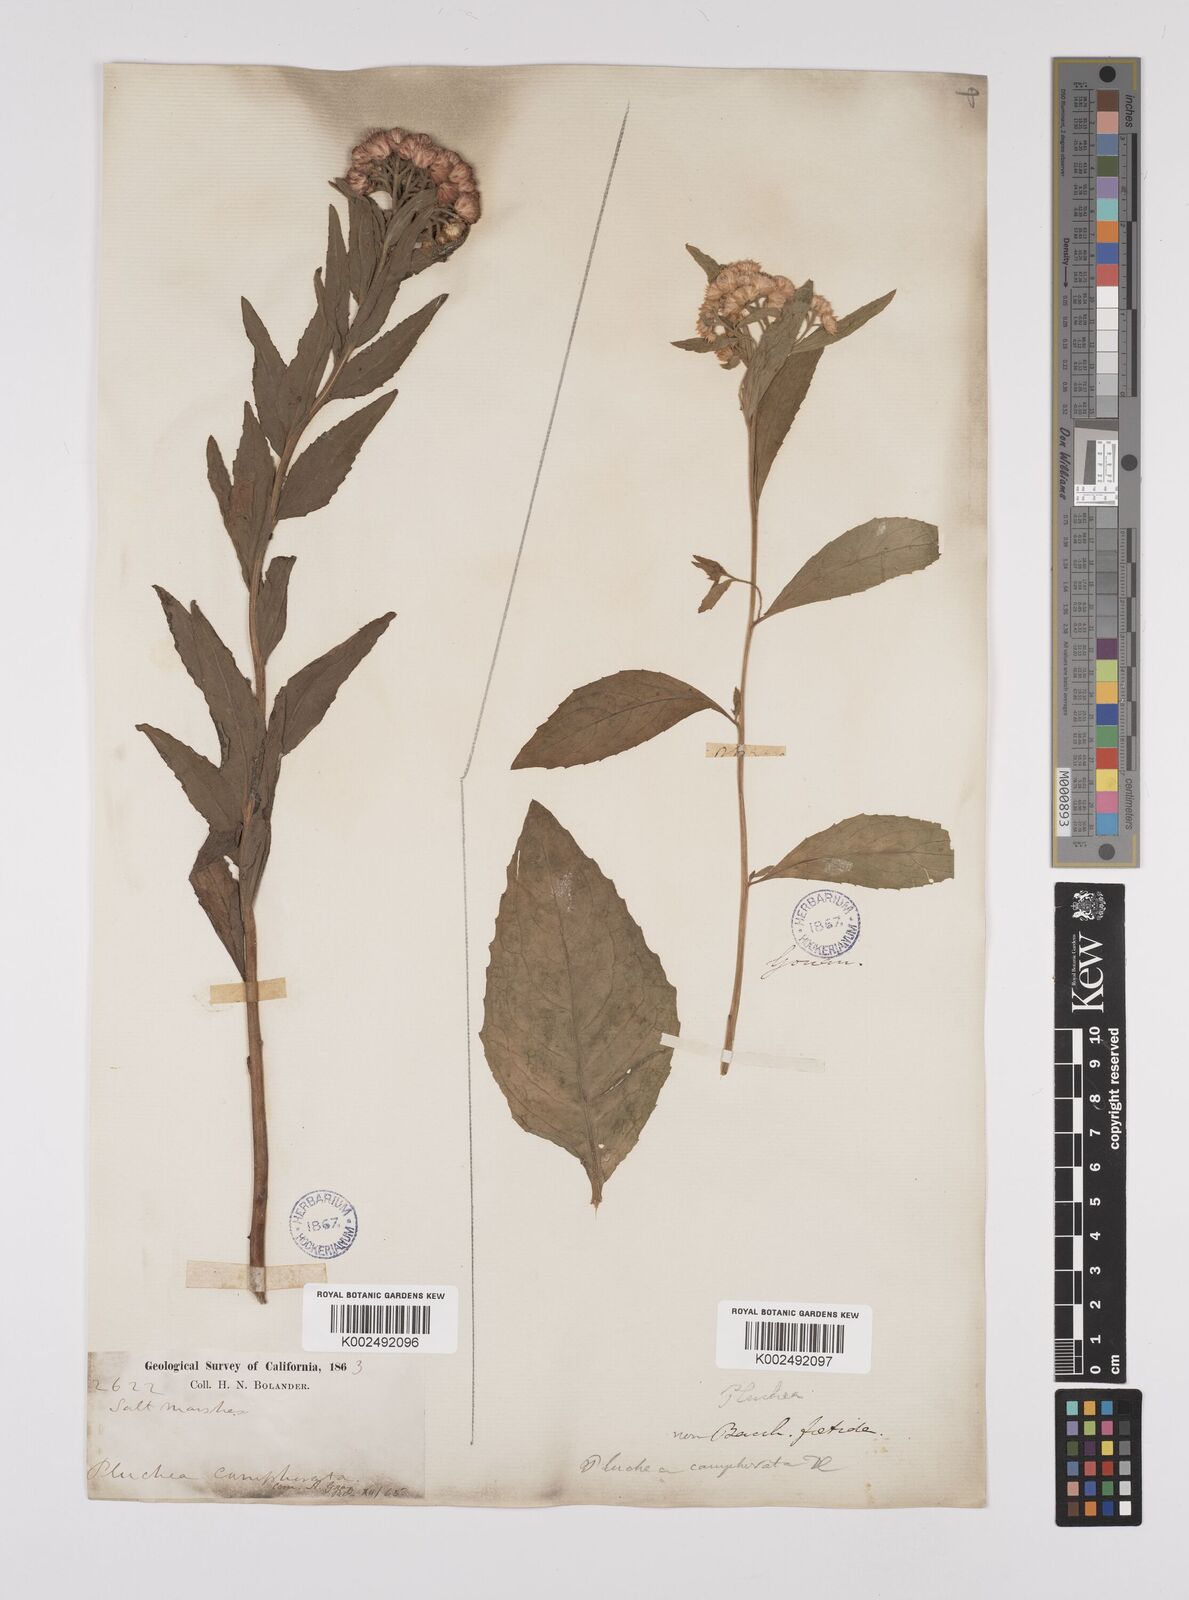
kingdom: Plantae
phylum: Tracheophyta
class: Magnoliopsida
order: Asterales
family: Asteraceae
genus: Pluchea
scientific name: Pluchea camphorata
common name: Camphor pluchea
